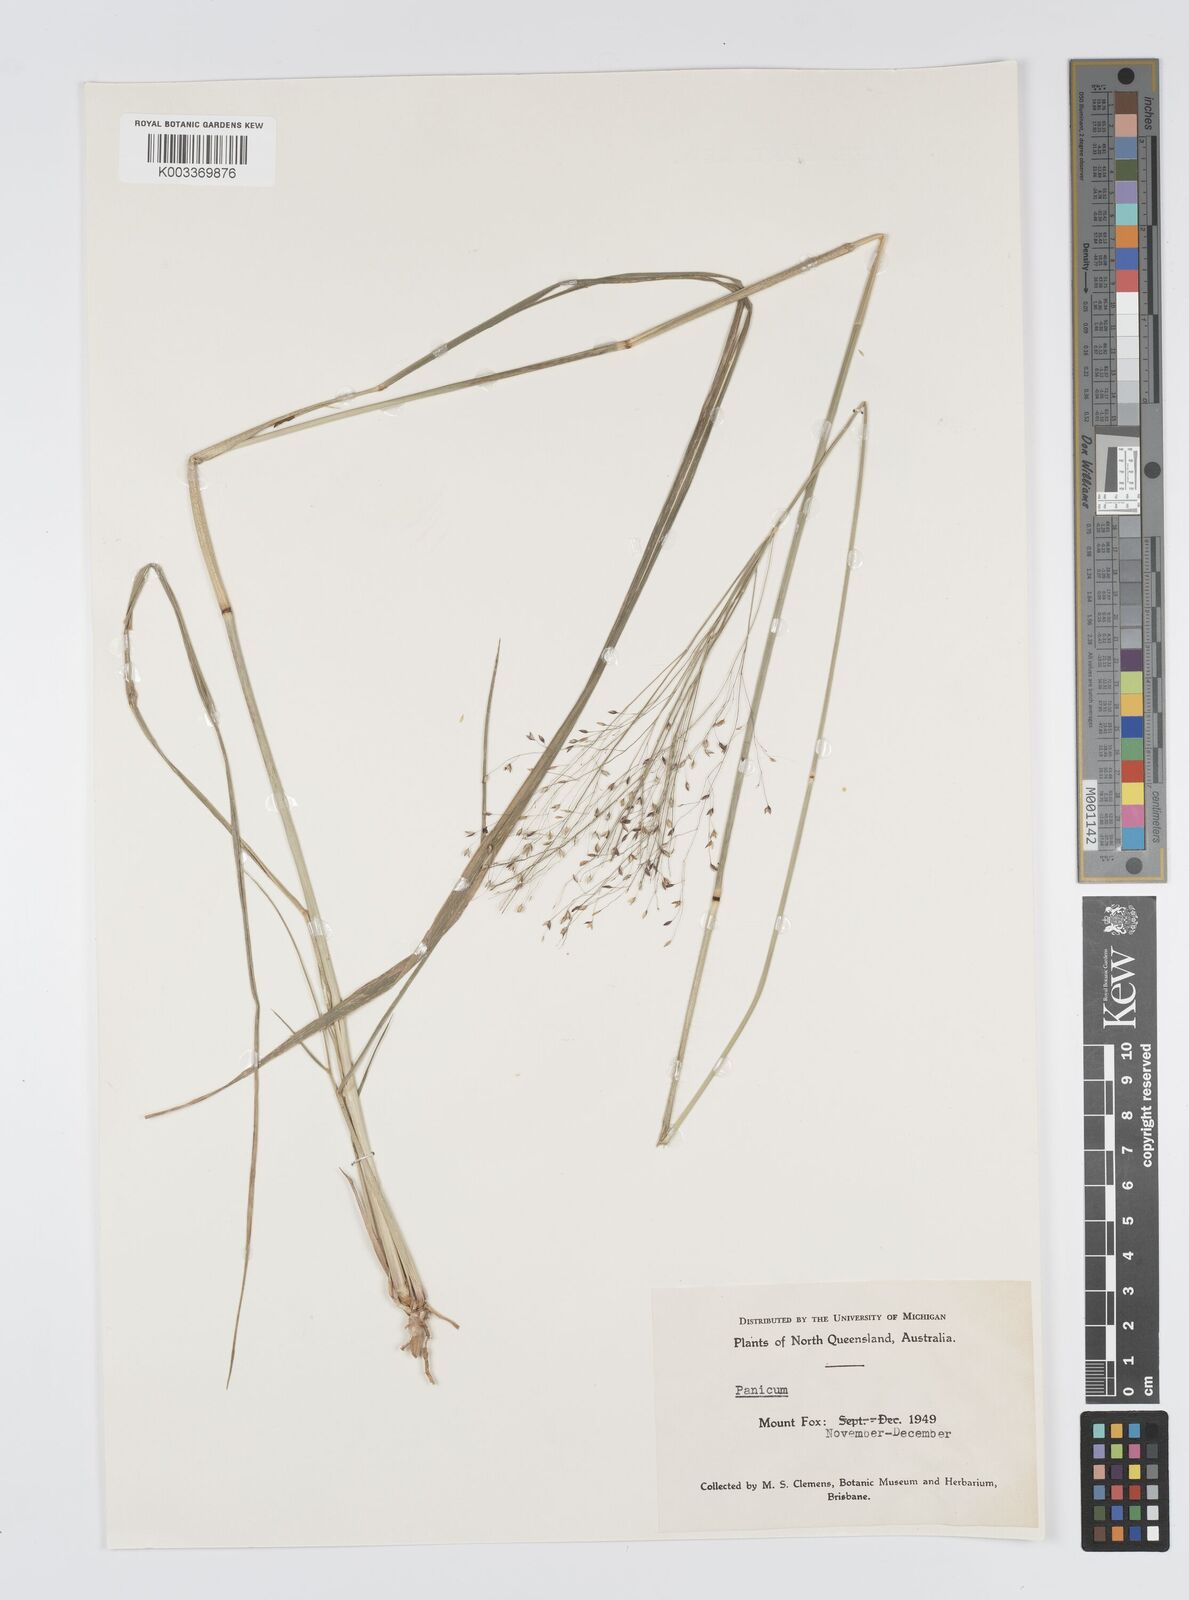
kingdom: Plantae
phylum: Tracheophyta
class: Liliopsida
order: Poales
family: Poaceae
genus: Panicum
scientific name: Panicum mitchellii
